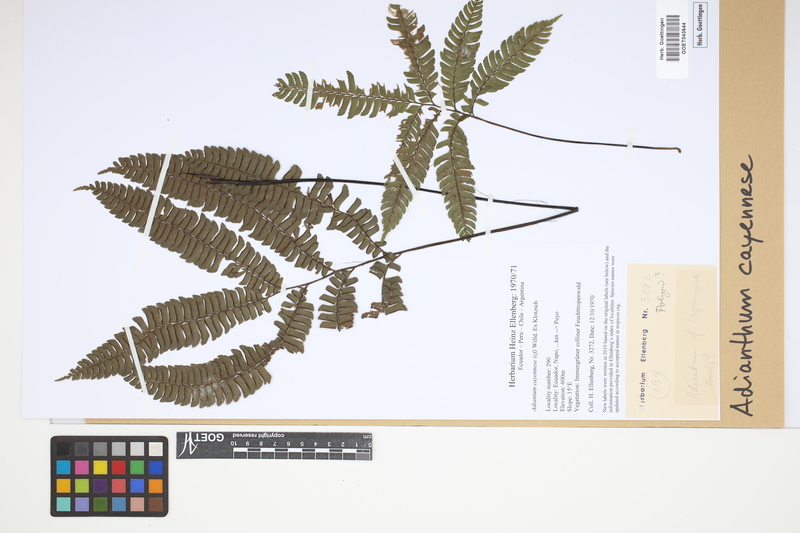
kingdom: Plantae
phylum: Tracheophyta
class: Polypodiopsida
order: Polypodiales
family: Pteridaceae
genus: Adiantum
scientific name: Adiantum cajennense
